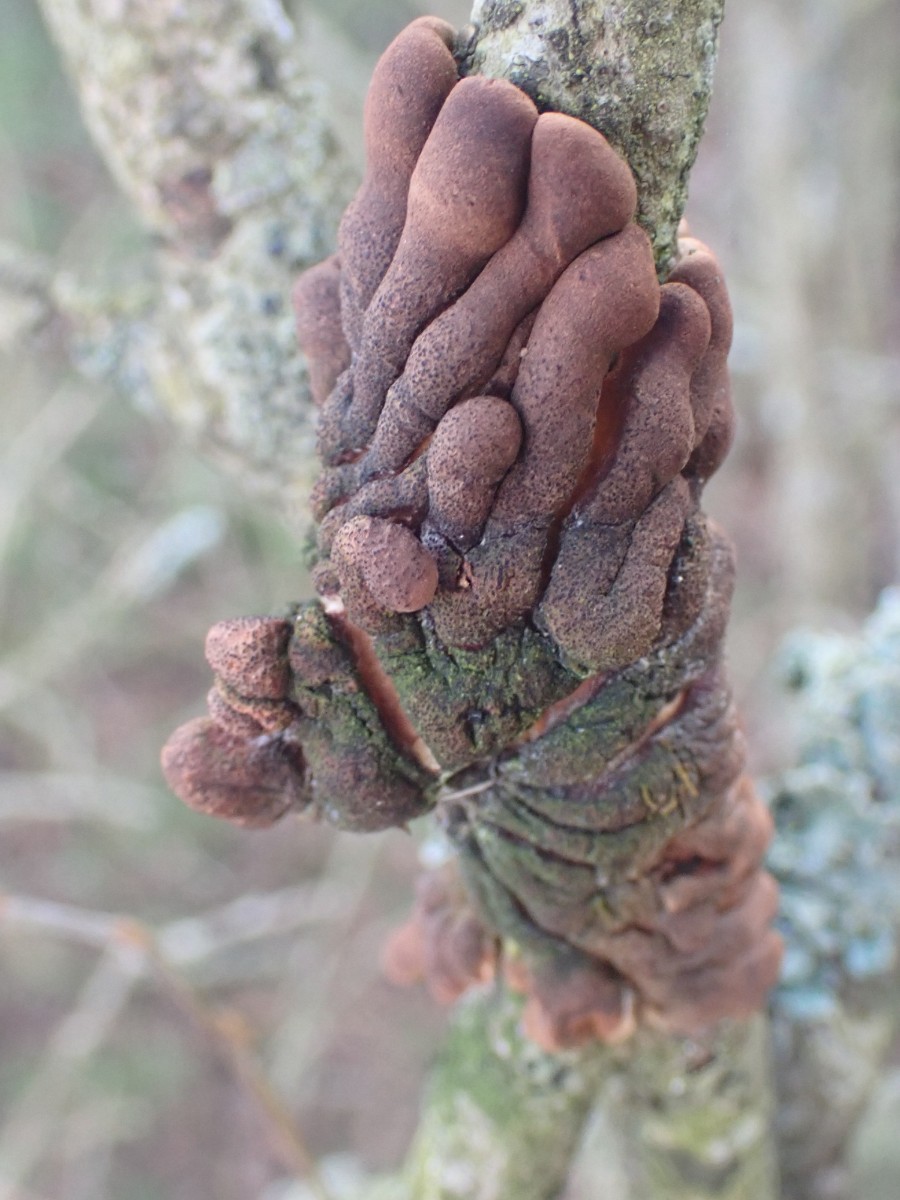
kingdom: Fungi
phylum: Ascomycota
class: Sordariomycetes
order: Hypocreales
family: Hypocreaceae
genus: Hypocreopsis
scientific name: Hypocreopsis lichenoides
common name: pilfinger
